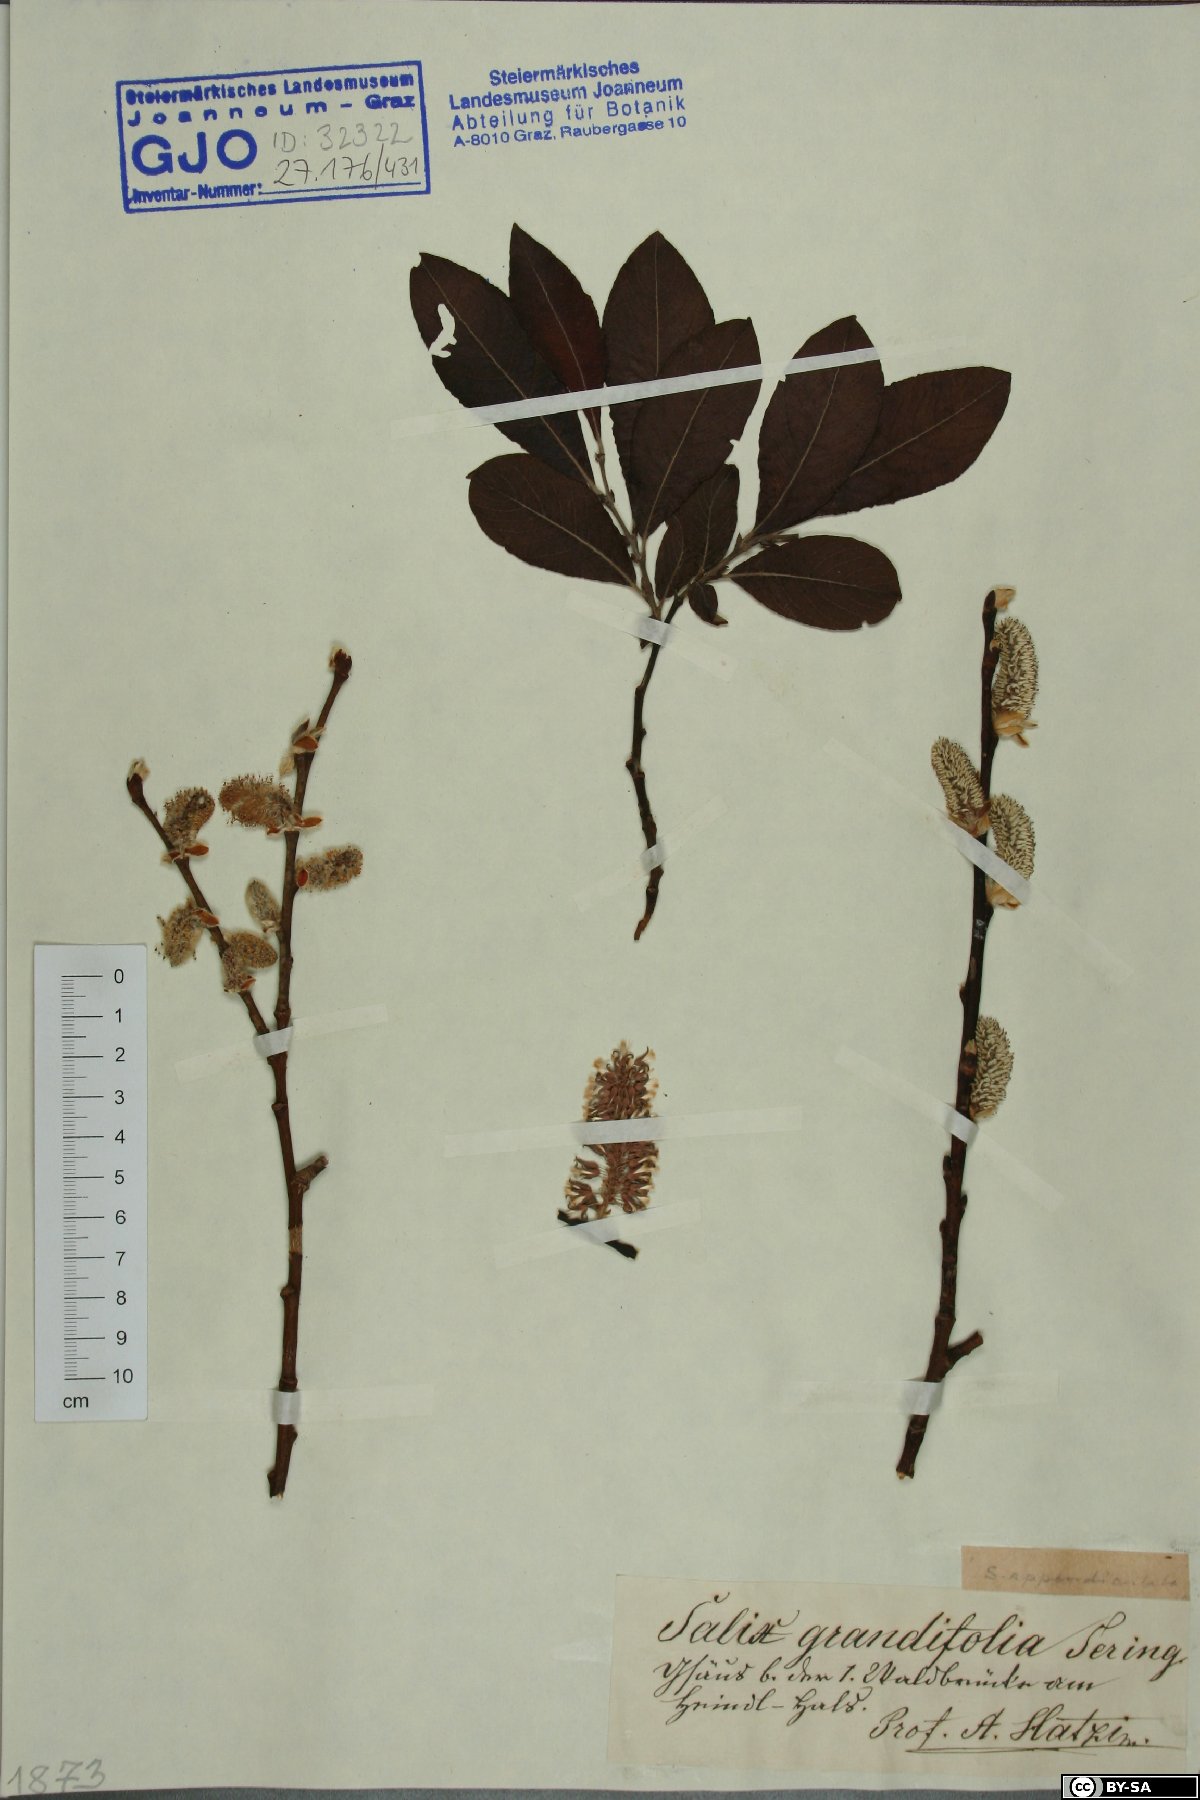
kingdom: Plantae
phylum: Tracheophyta
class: Magnoliopsida
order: Malpighiales
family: Salicaceae
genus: Salix
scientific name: Salix appendiculata
